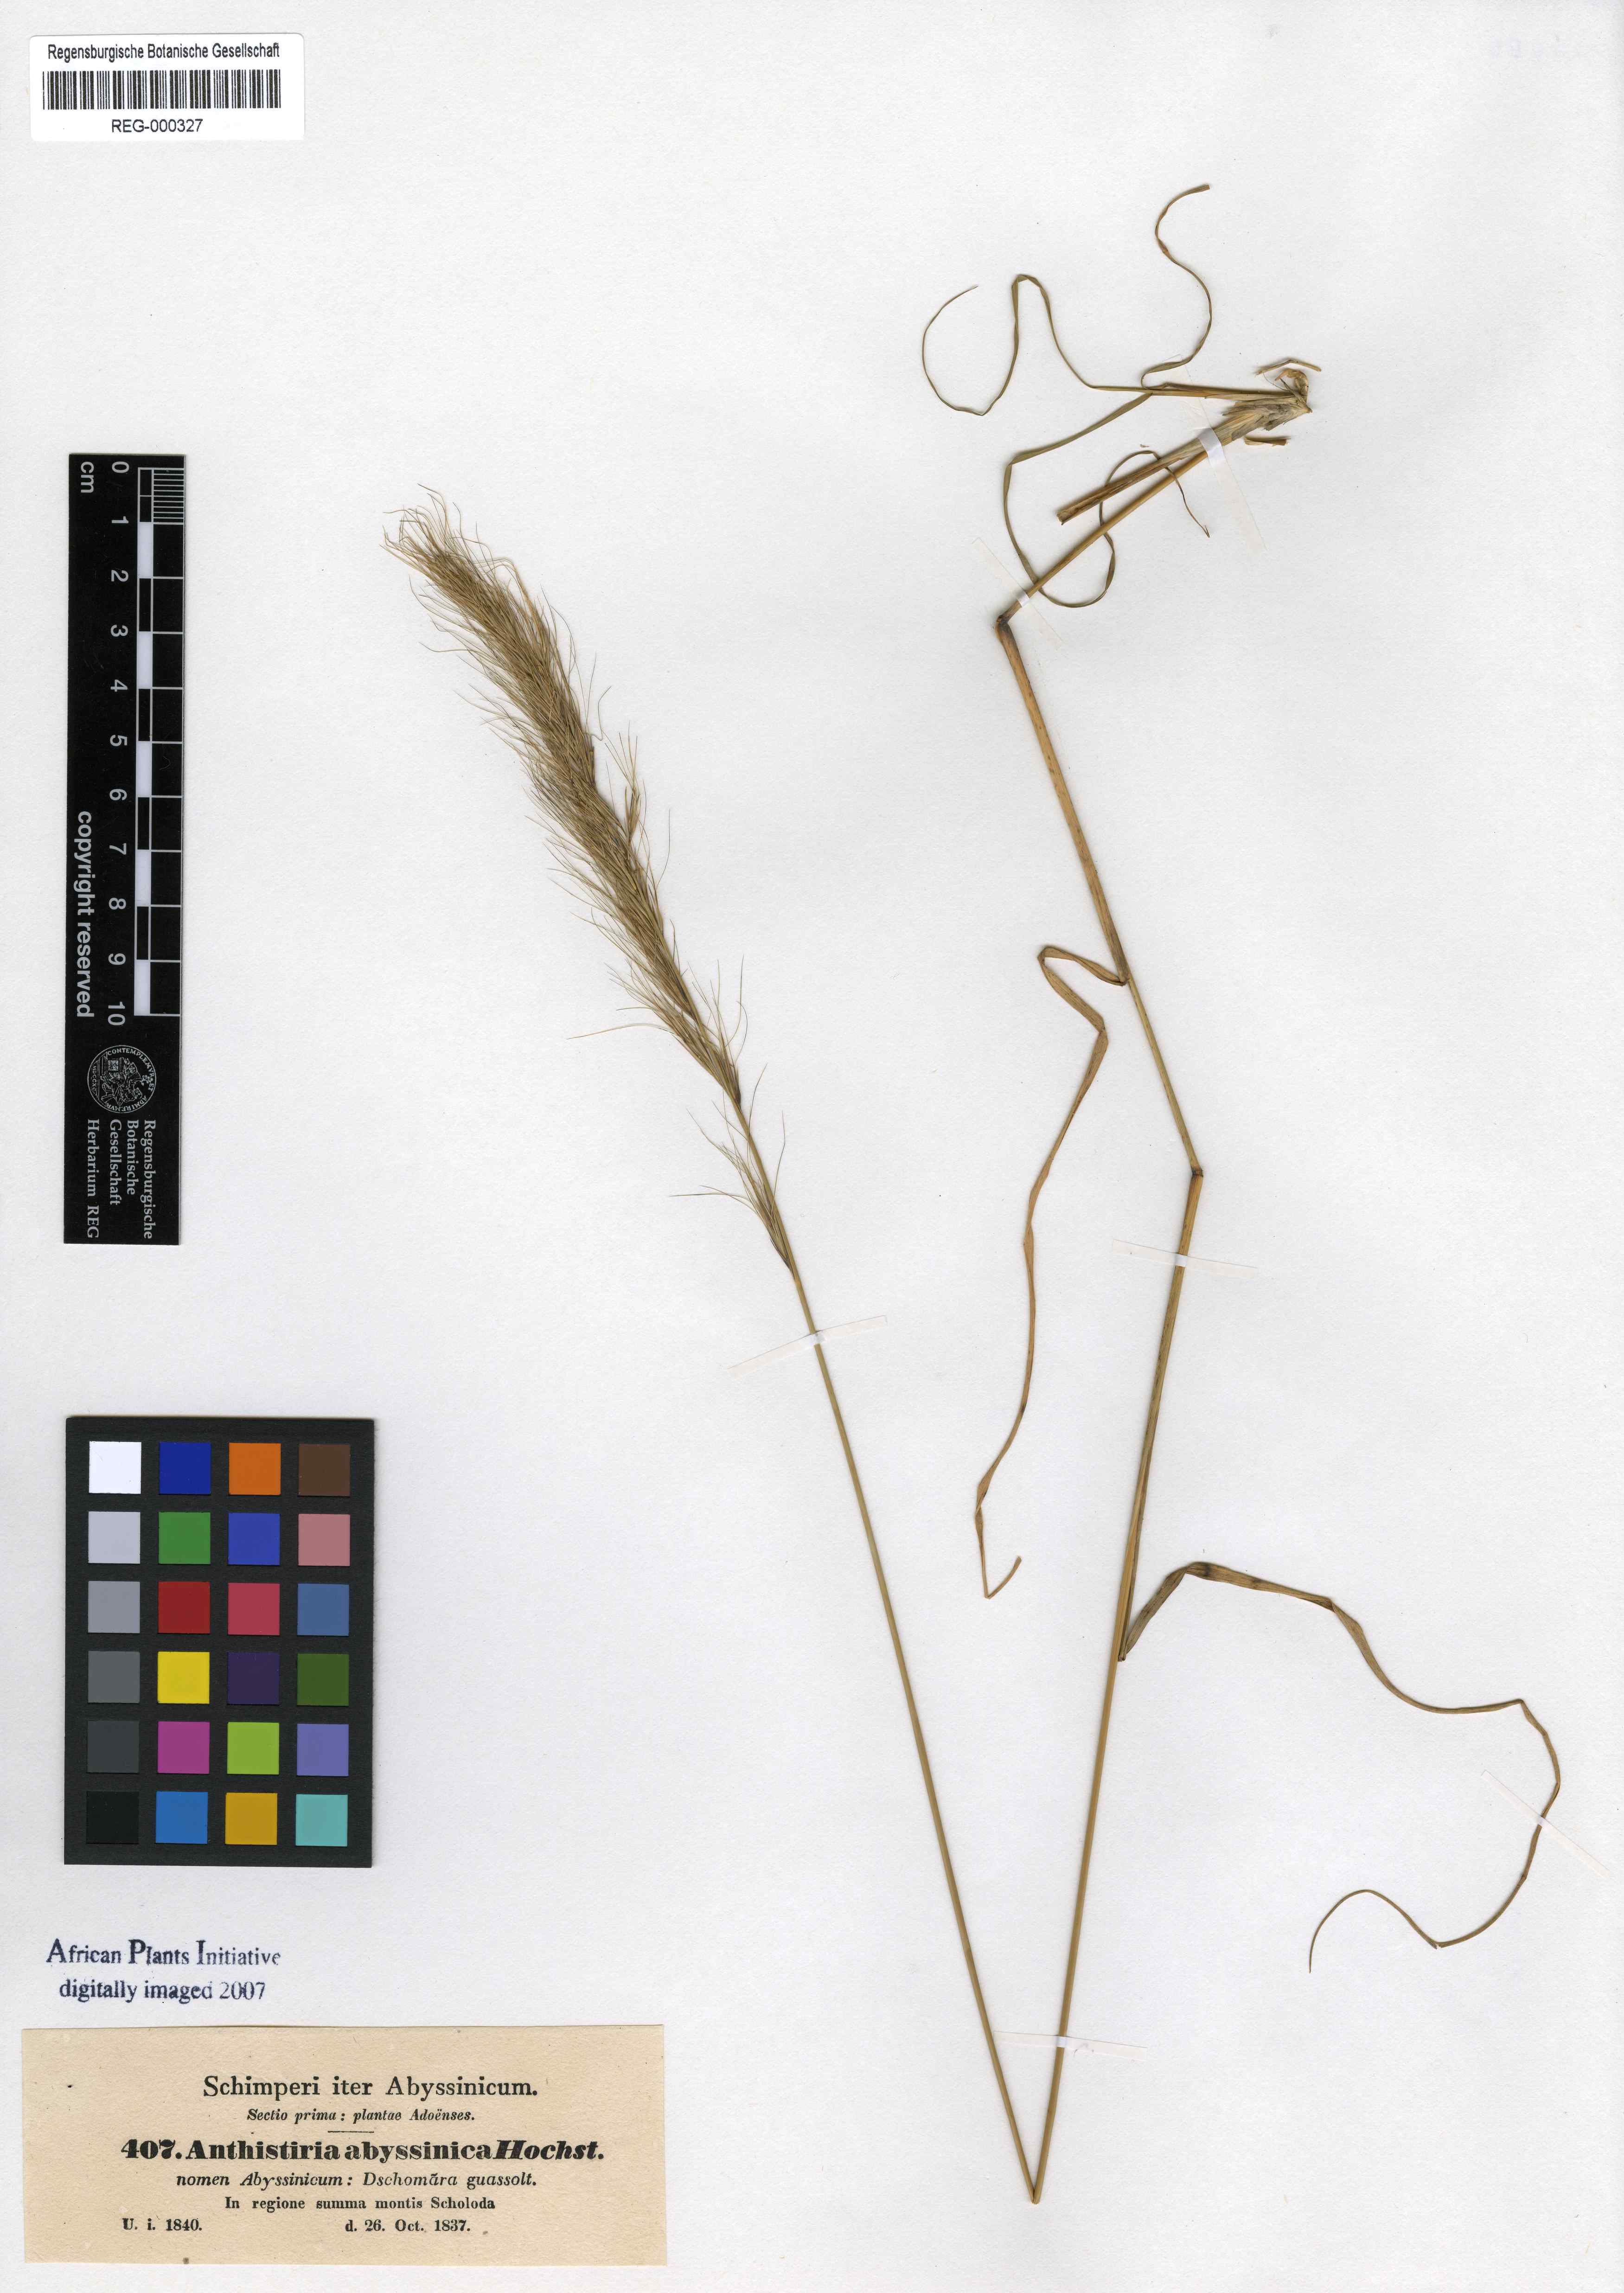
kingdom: Plantae
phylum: Tracheophyta
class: Liliopsida
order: Poales
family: Poaceae
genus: Exotheca
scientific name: Exotheca abyssinica
